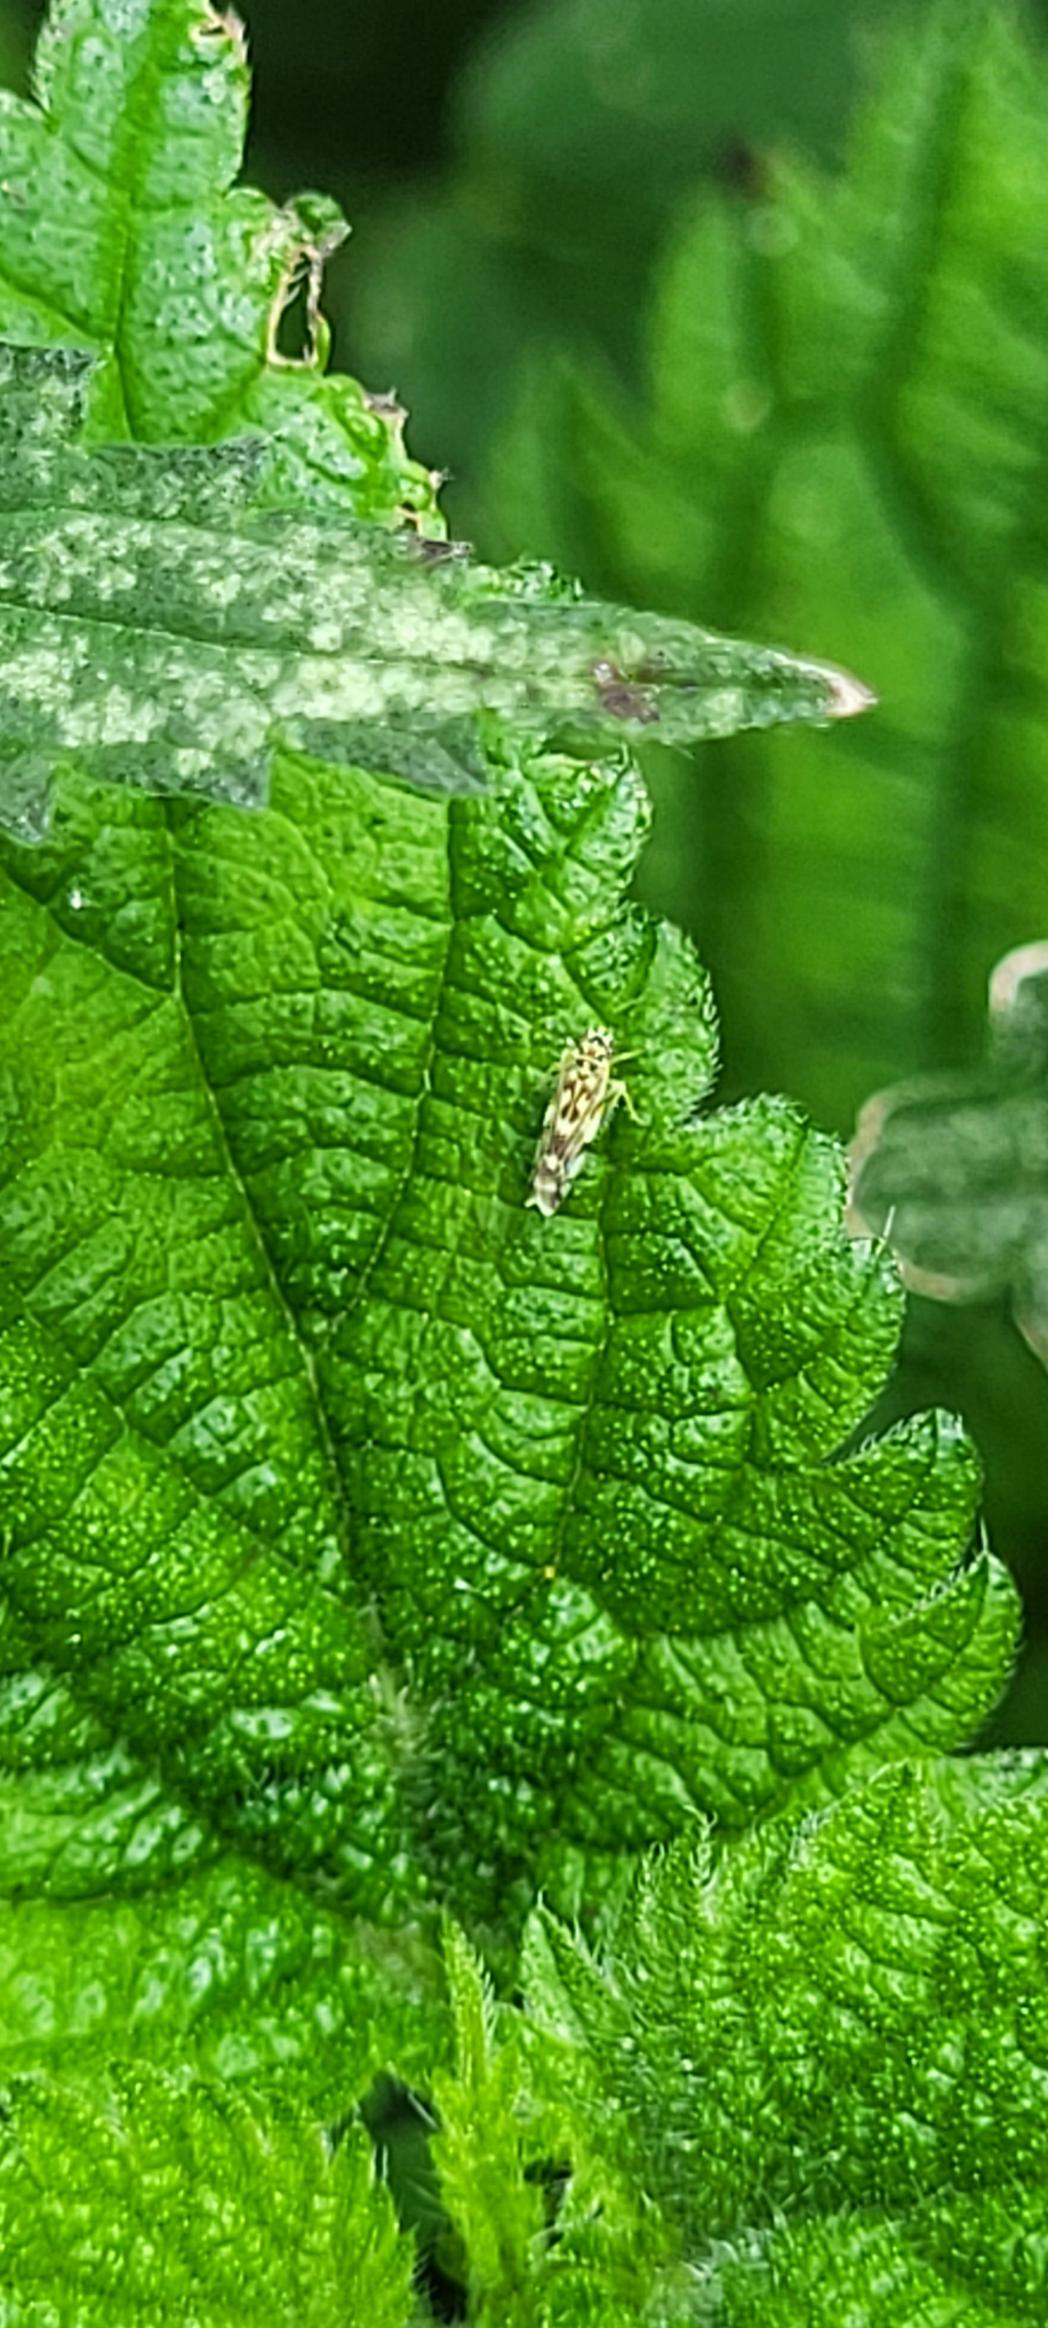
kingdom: Animalia
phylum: Arthropoda
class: Insecta
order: Hemiptera
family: Cicadellidae
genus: Eupteryx
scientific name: Eupteryx urticae
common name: Nældemikrocikade
